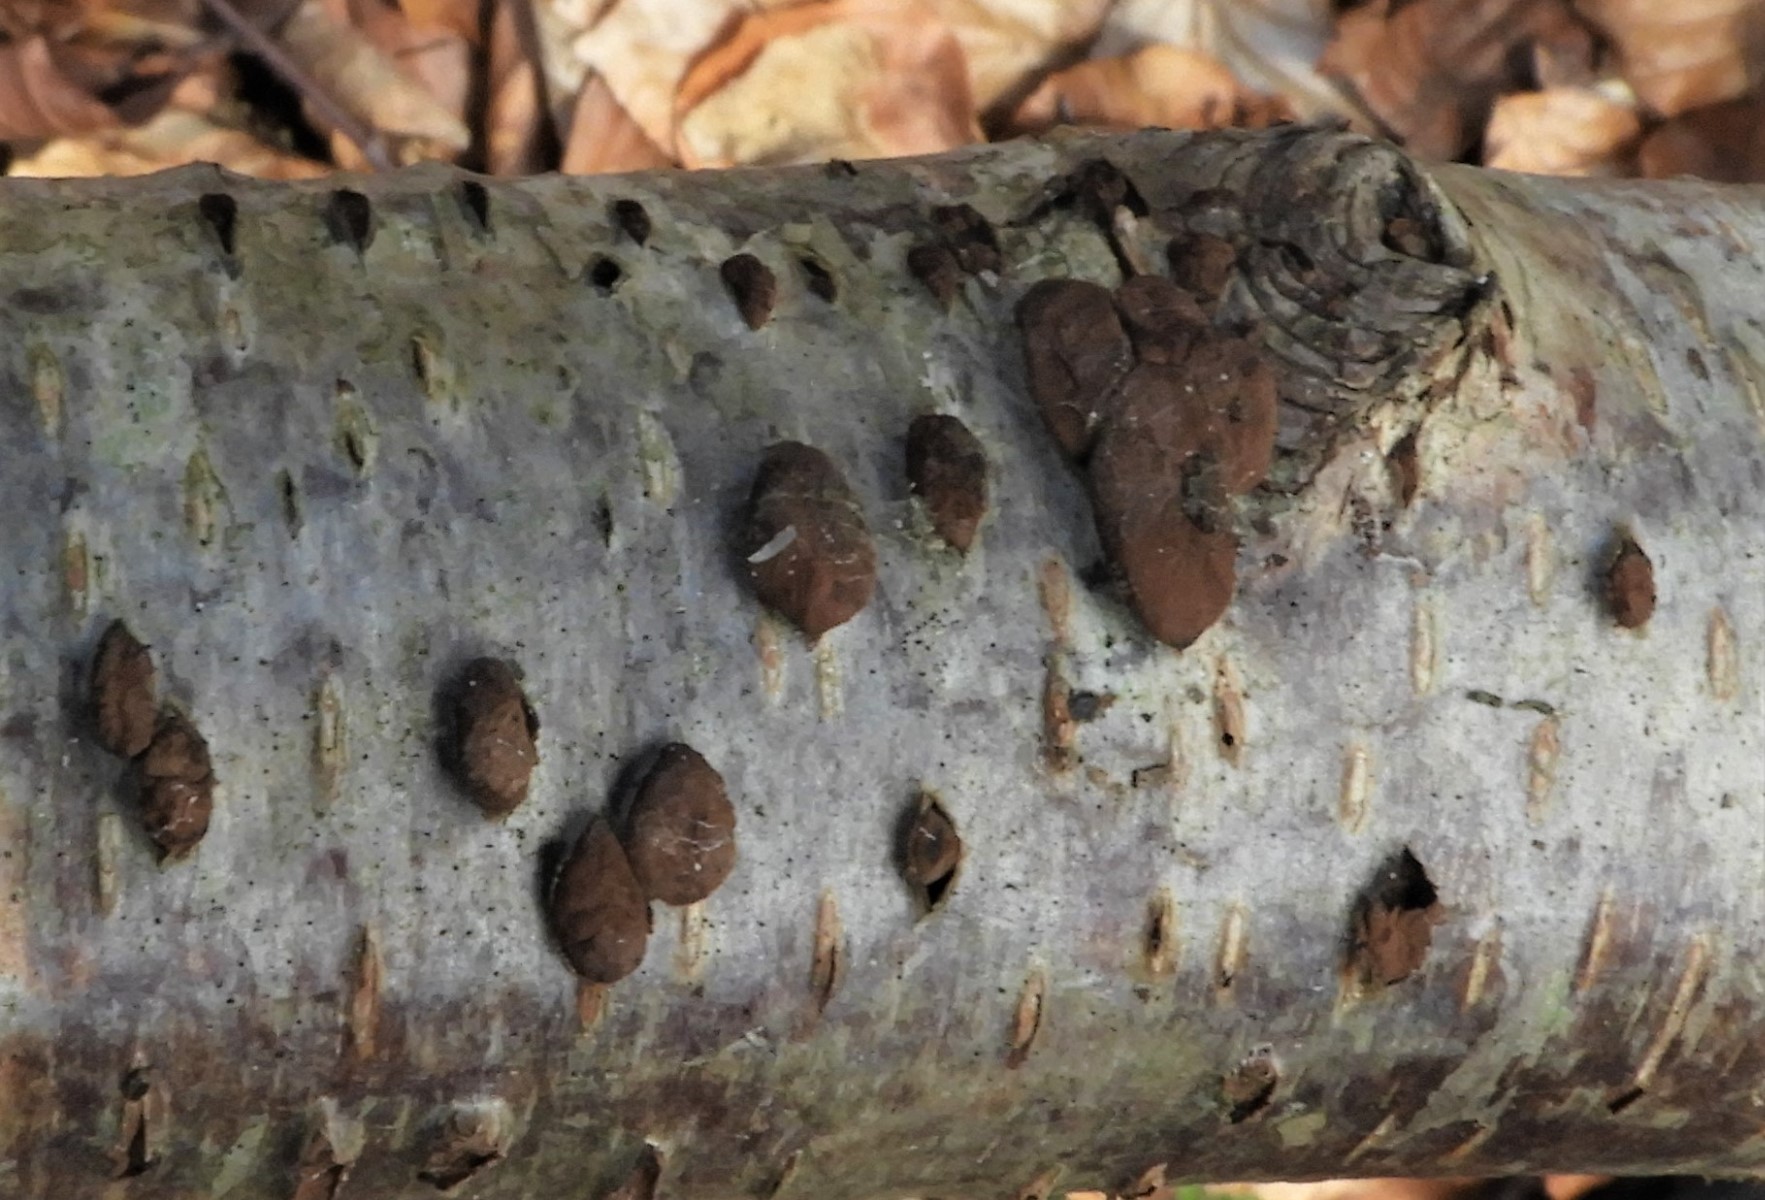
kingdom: Fungi
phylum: Ascomycota
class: Sordariomycetes
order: Xylariales
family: Hypoxylaceae
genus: Jackrogersella
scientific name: Jackrogersella multiformis
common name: foranderlig kulbær
